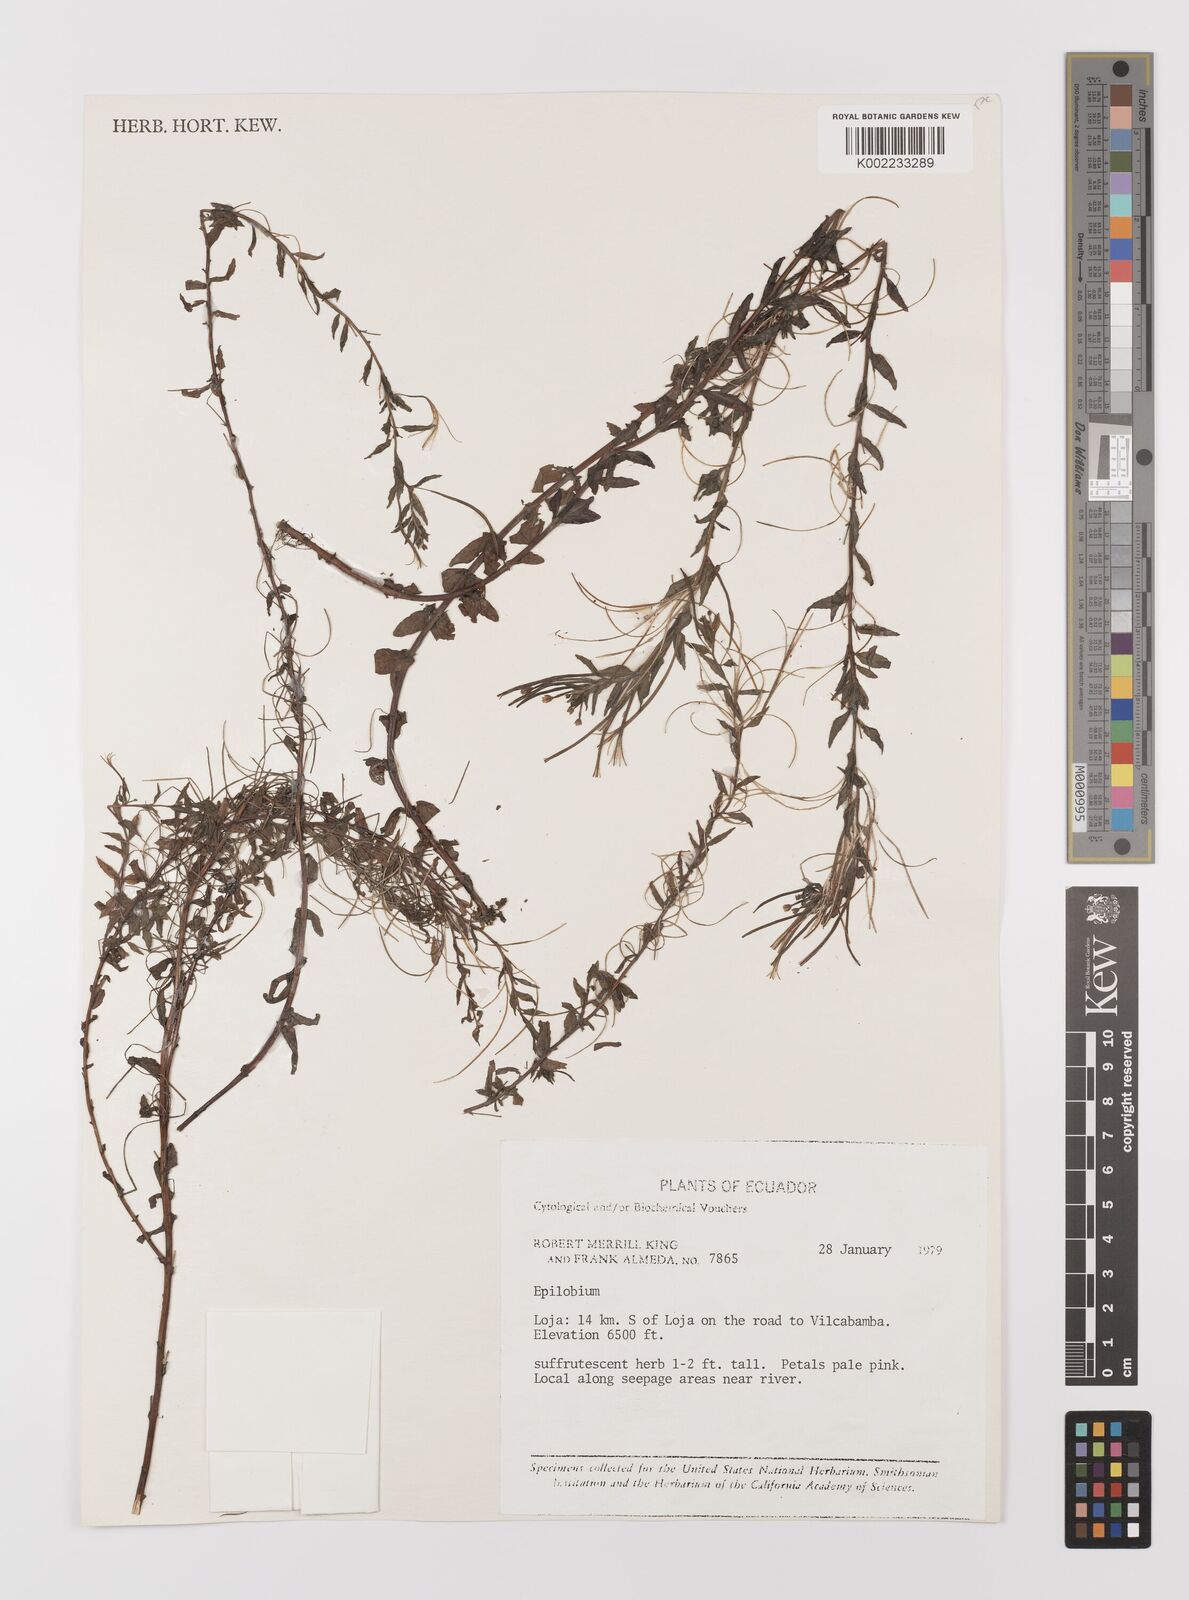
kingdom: Plantae
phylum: Tracheophyta
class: Magnoliopsida
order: Myrtales
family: Onagraceae
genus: Epilobium
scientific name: Epilobium
